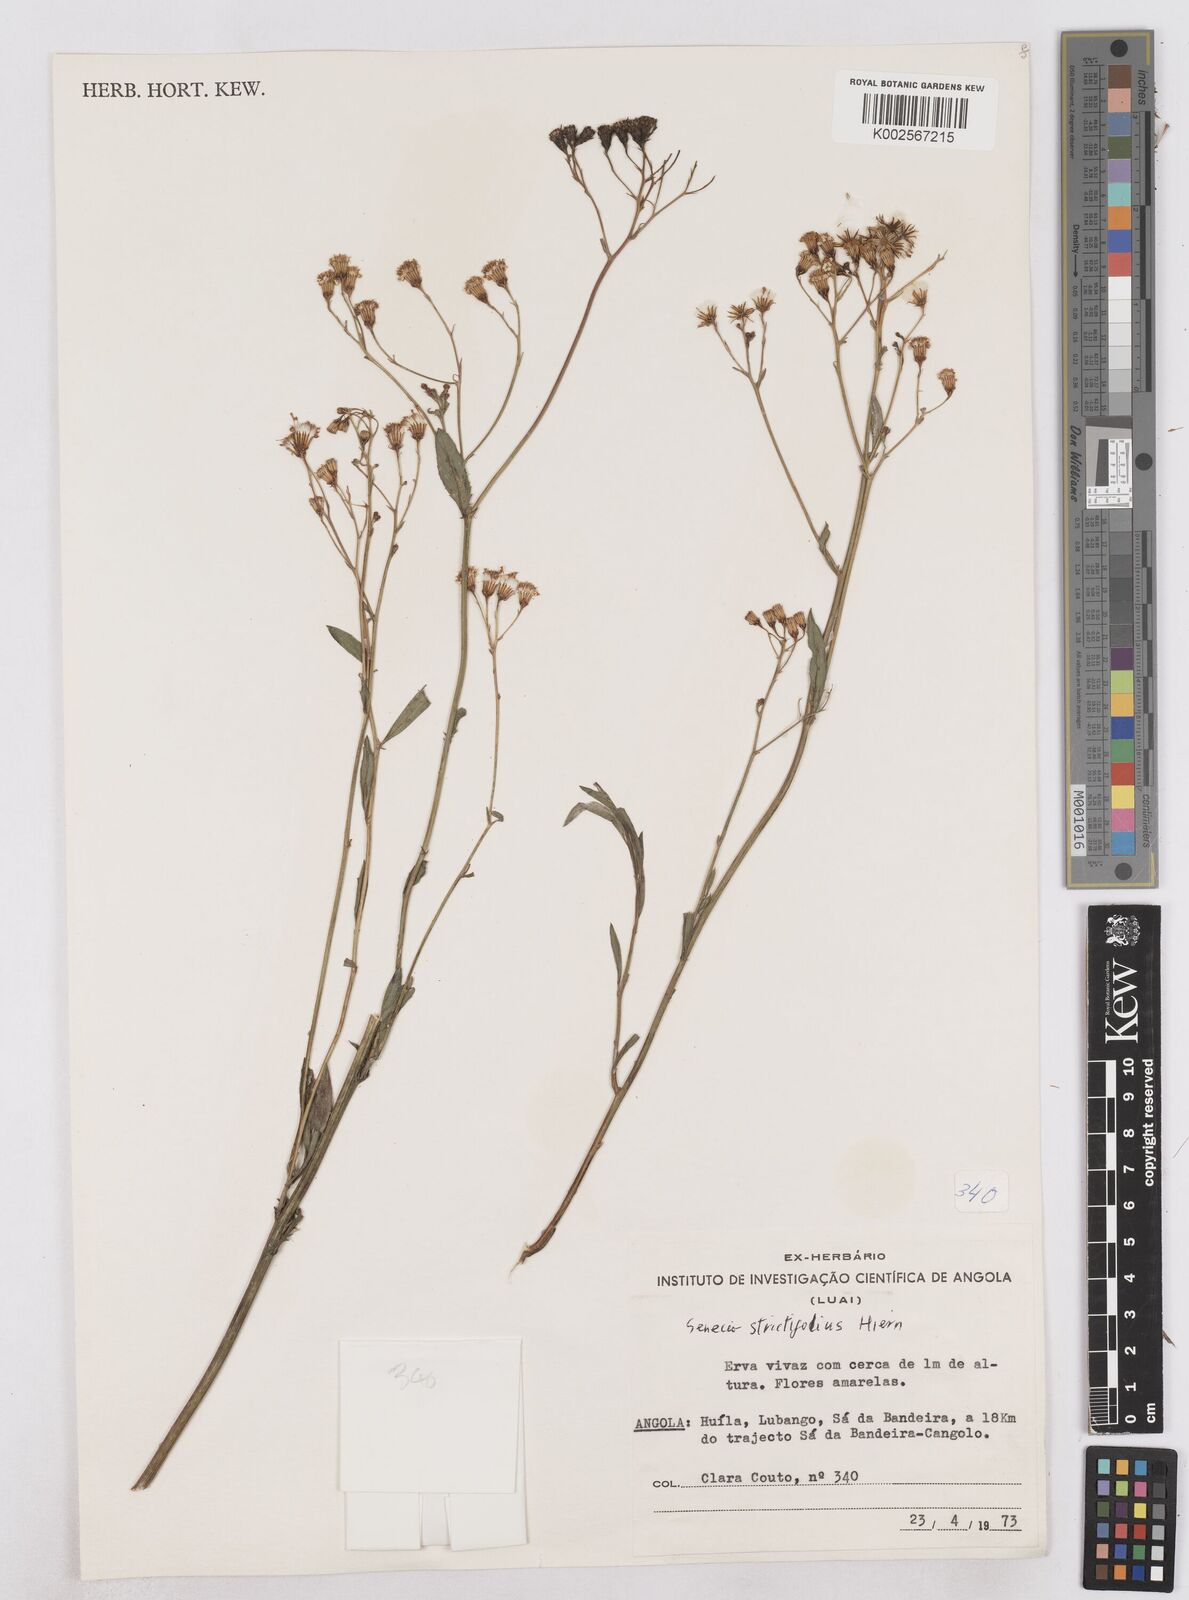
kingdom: Plantae
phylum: Tracheophyta
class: Magnoliopsida
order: Asterales
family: Asteraceae
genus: Senecio
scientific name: Senecio strictifolius
